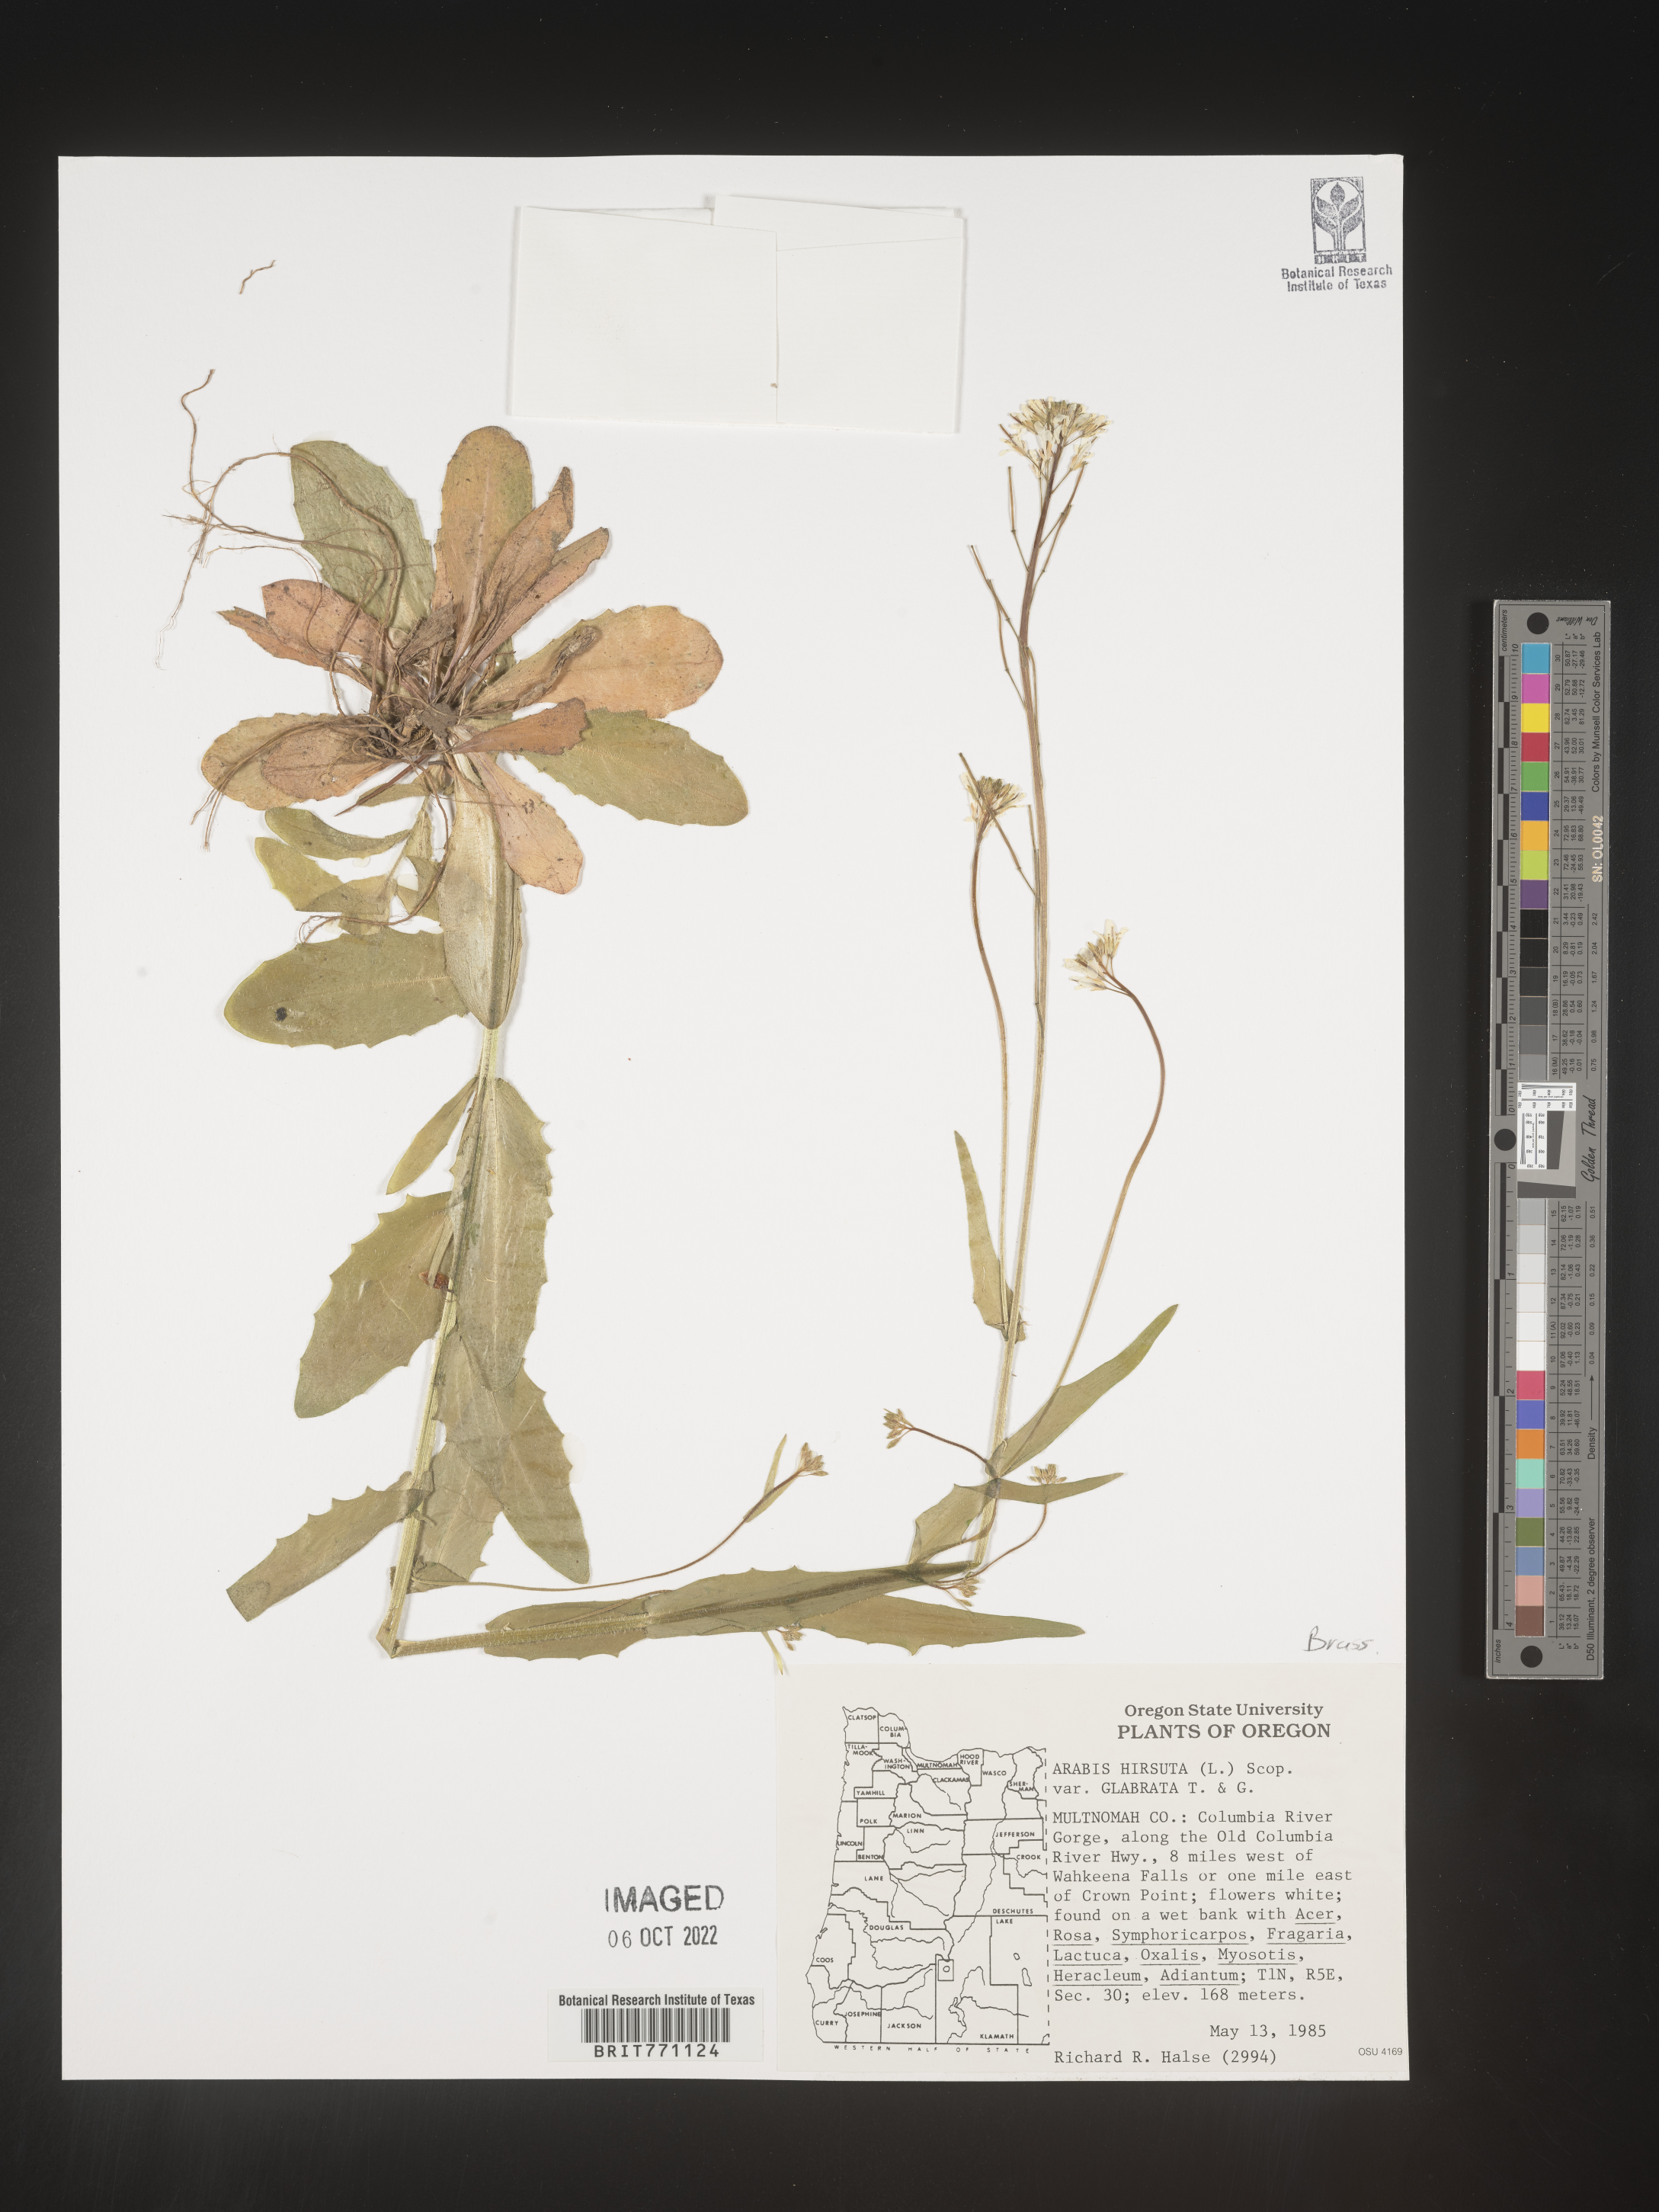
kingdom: Plantae
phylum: Tracheophyta
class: Magnoliopsida
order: Brassicales
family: Brassicaceae
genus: Arabis
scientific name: Arabis hirsuta
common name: Hairy rock-cress
